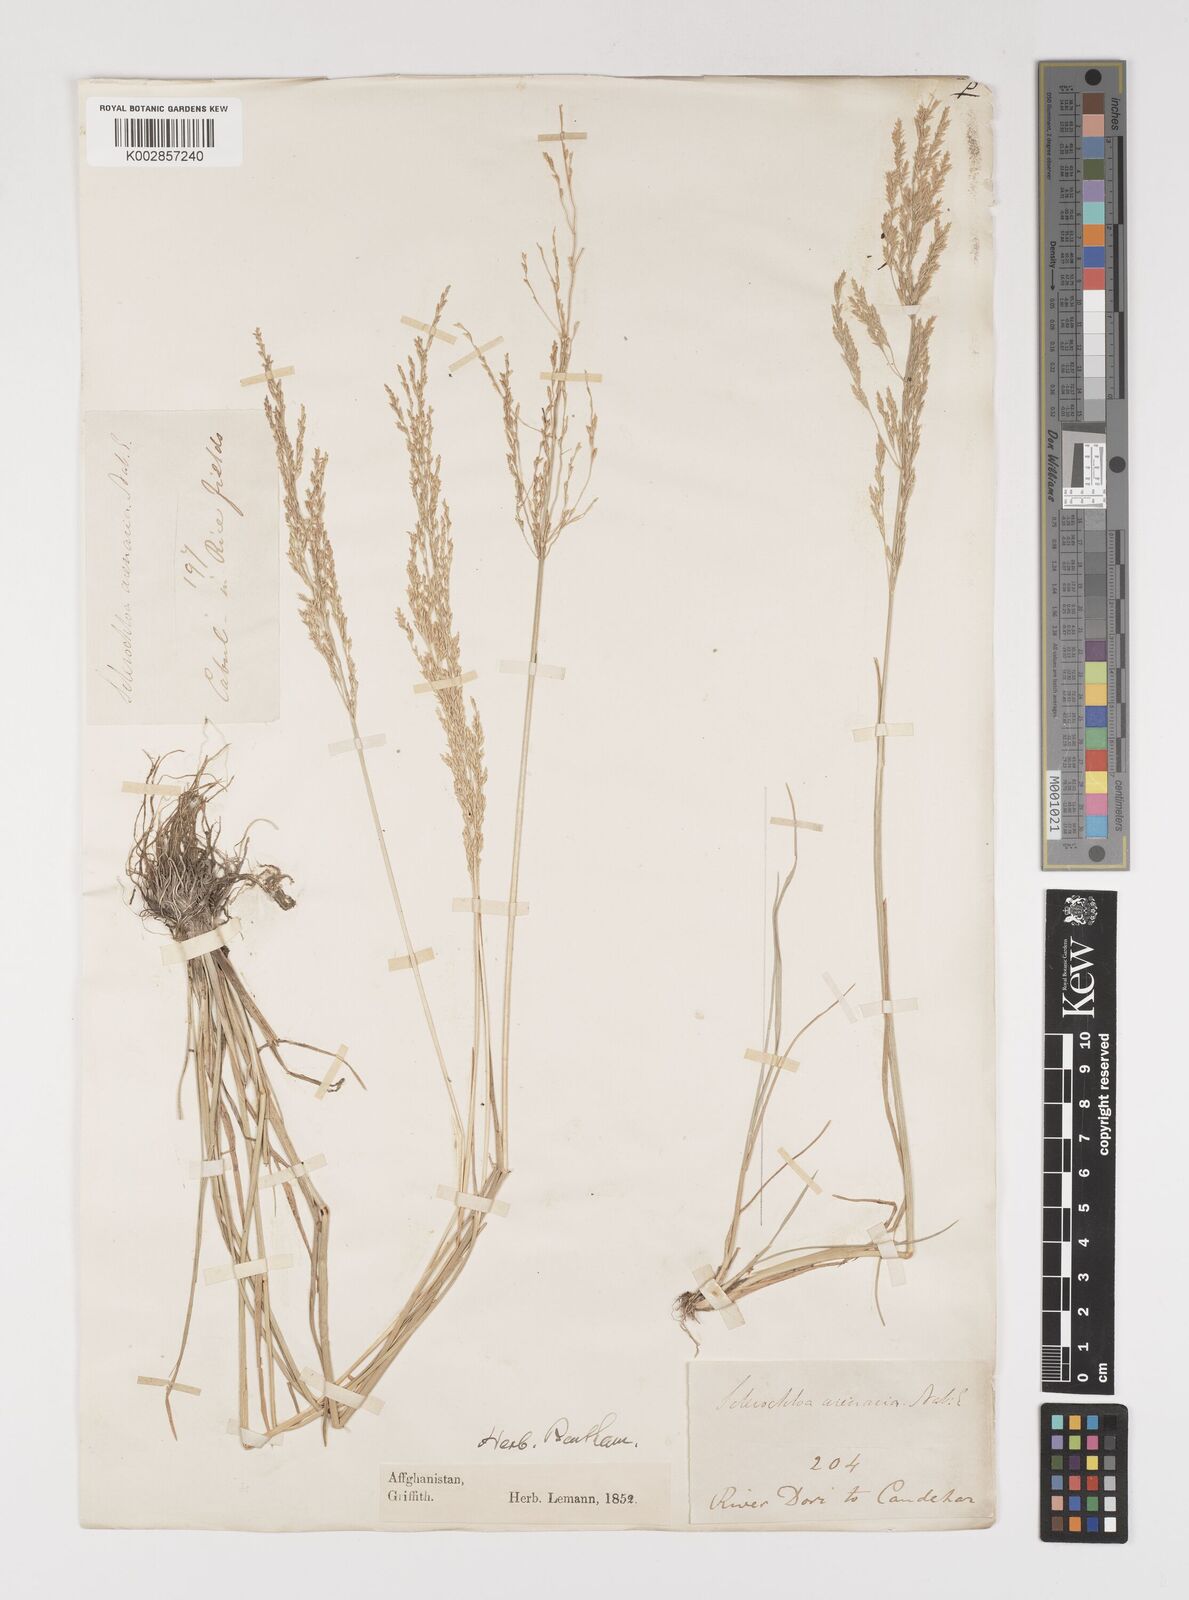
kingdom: Plantae
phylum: Tracheophyta
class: Liliopsida
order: Poales
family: Poaceae
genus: Puccinellia
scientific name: Puccinellia distans
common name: Weeping alkaligrass
